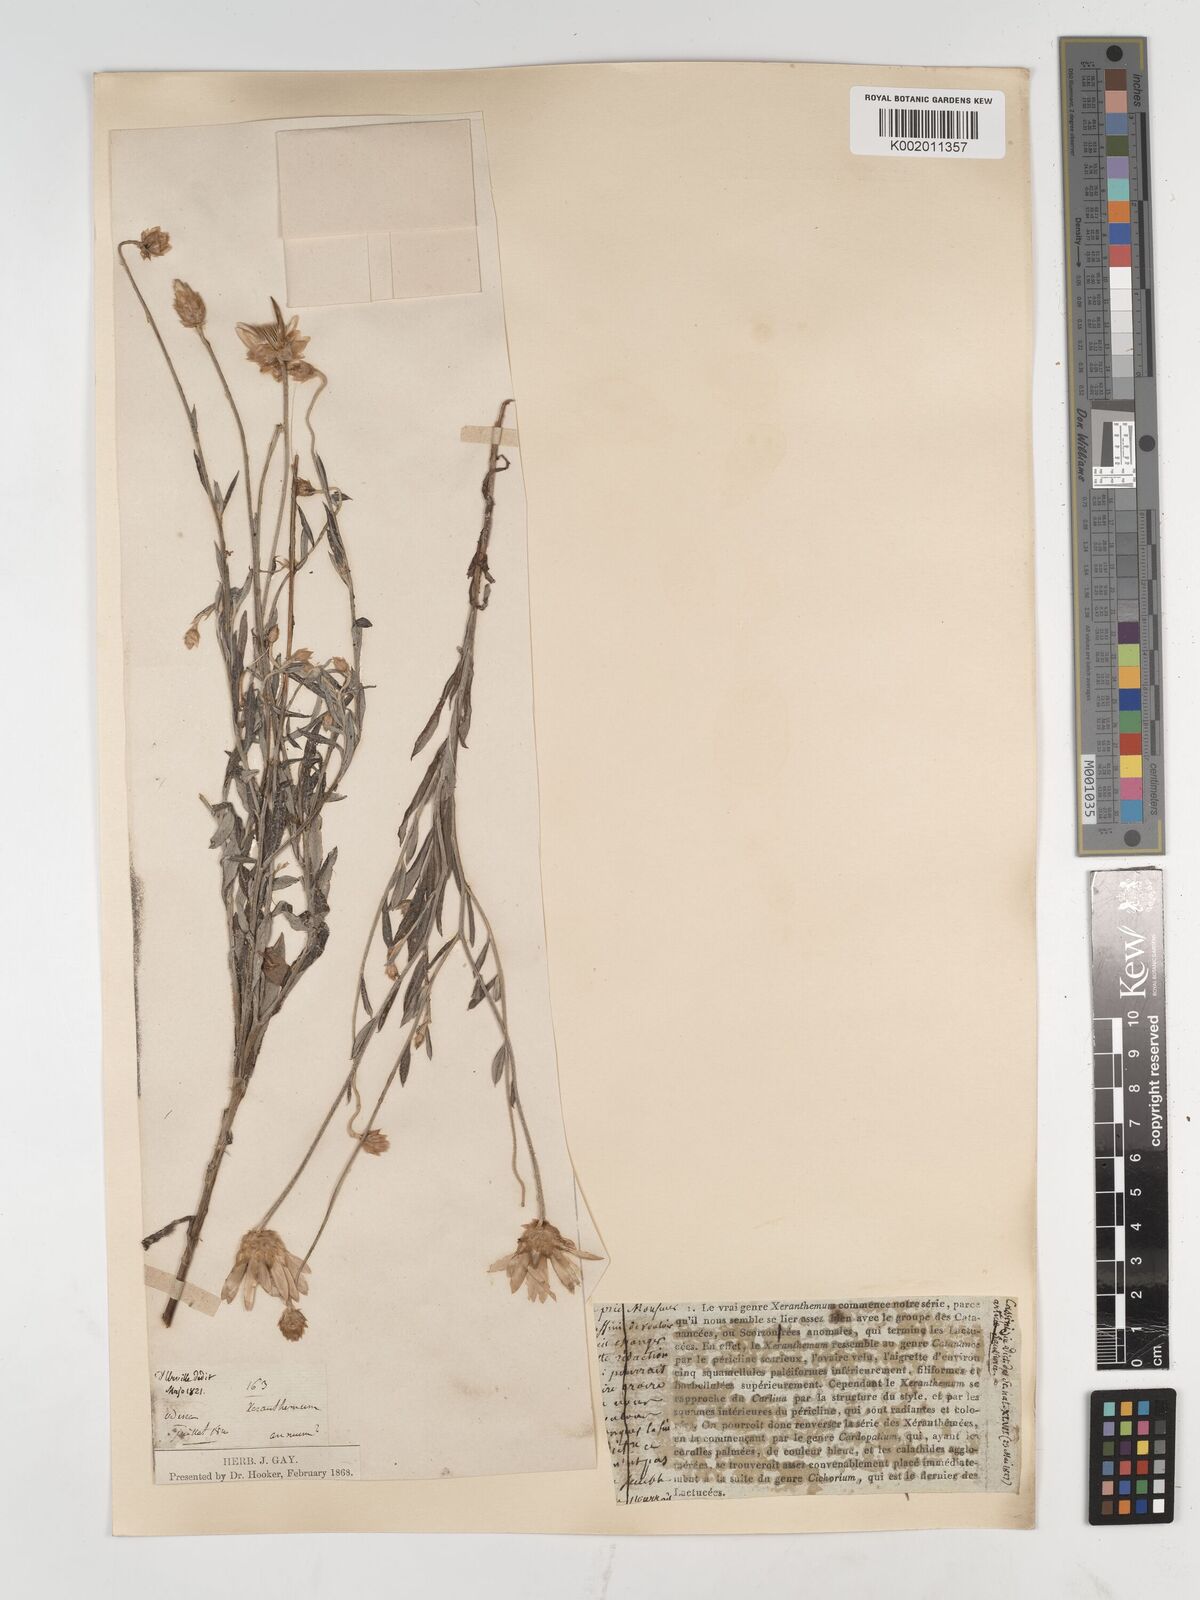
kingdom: Plantae
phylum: Tracheophyta
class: Magnoliopsida
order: Asterales
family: Asteraceae
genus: Xeranthemum
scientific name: Xeranthemum annuum
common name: Immortelle
